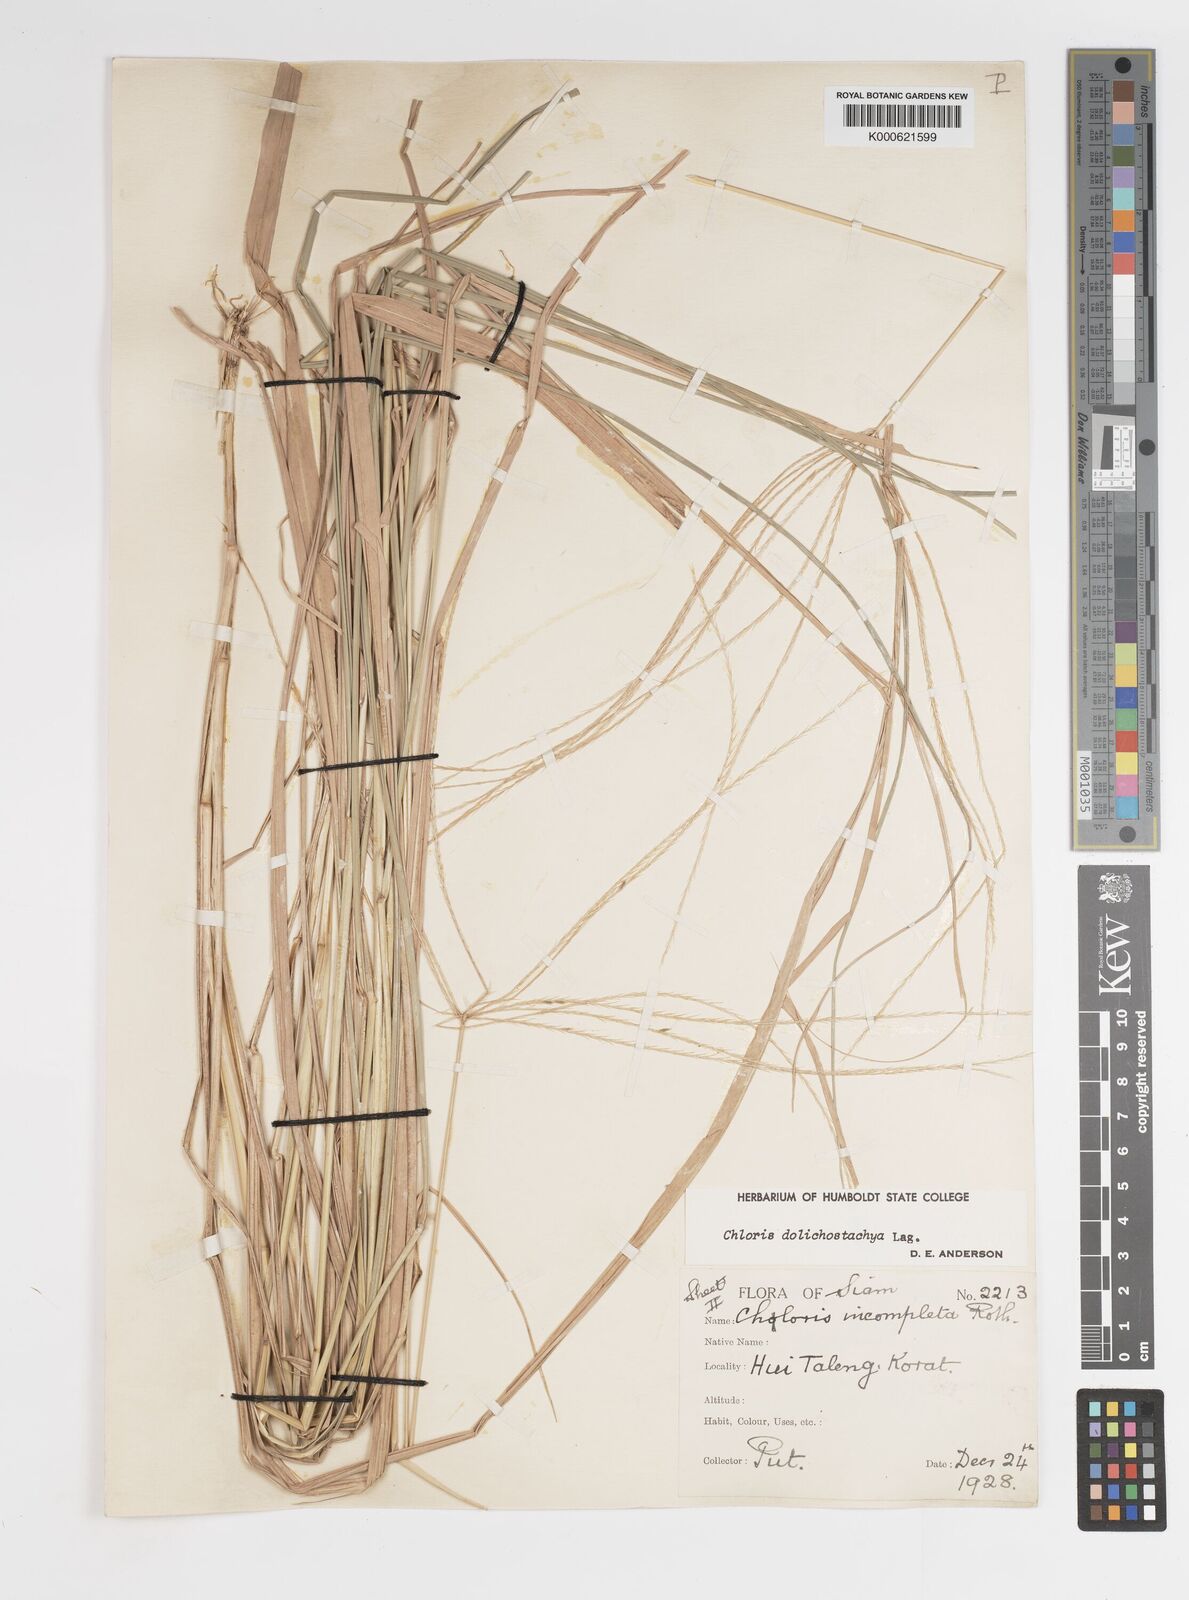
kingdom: Plantae
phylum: Tracheophyta
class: Liliopsida
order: Poales
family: Poaceae
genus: Enteropogon
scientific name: Enteropogon dolichostachyus
